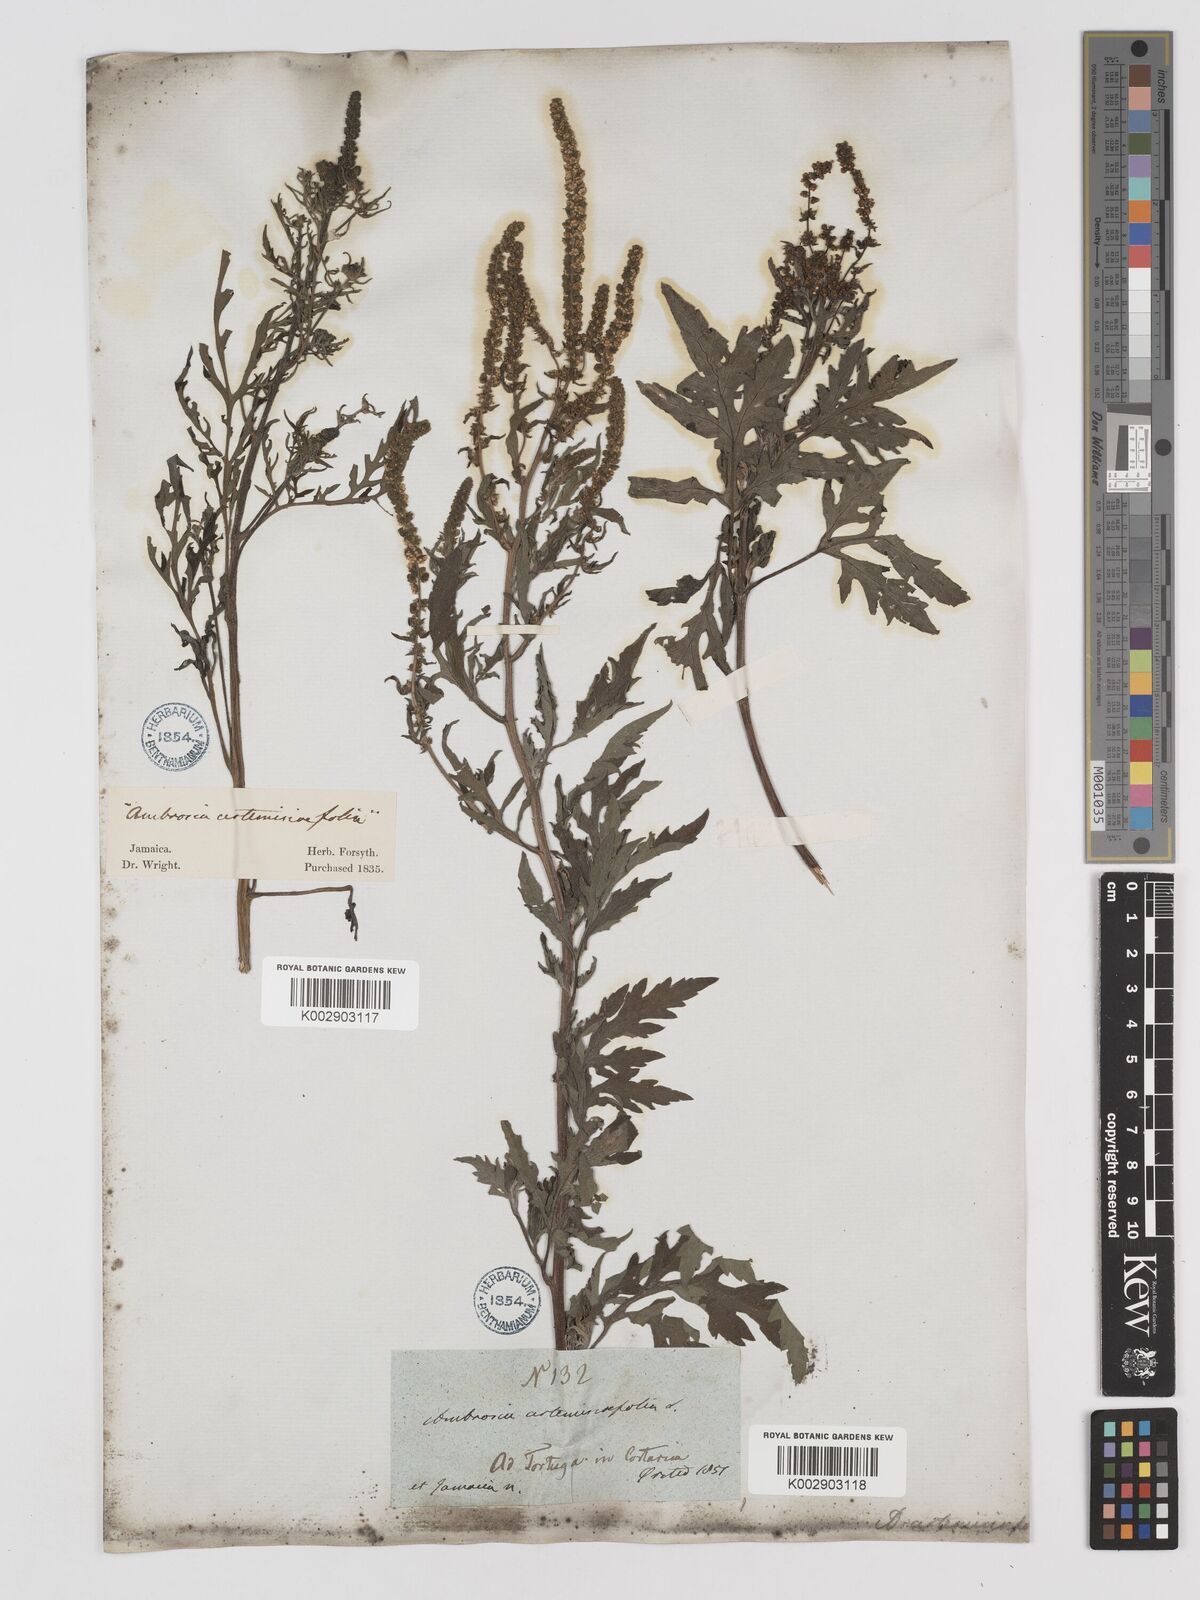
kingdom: Plantae
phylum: Tracheophyta
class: Magnoliopsida
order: Asterales
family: Asteraceae
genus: Ambrosia
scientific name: Ambrosia artemisiifolia
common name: Annual ragweed
